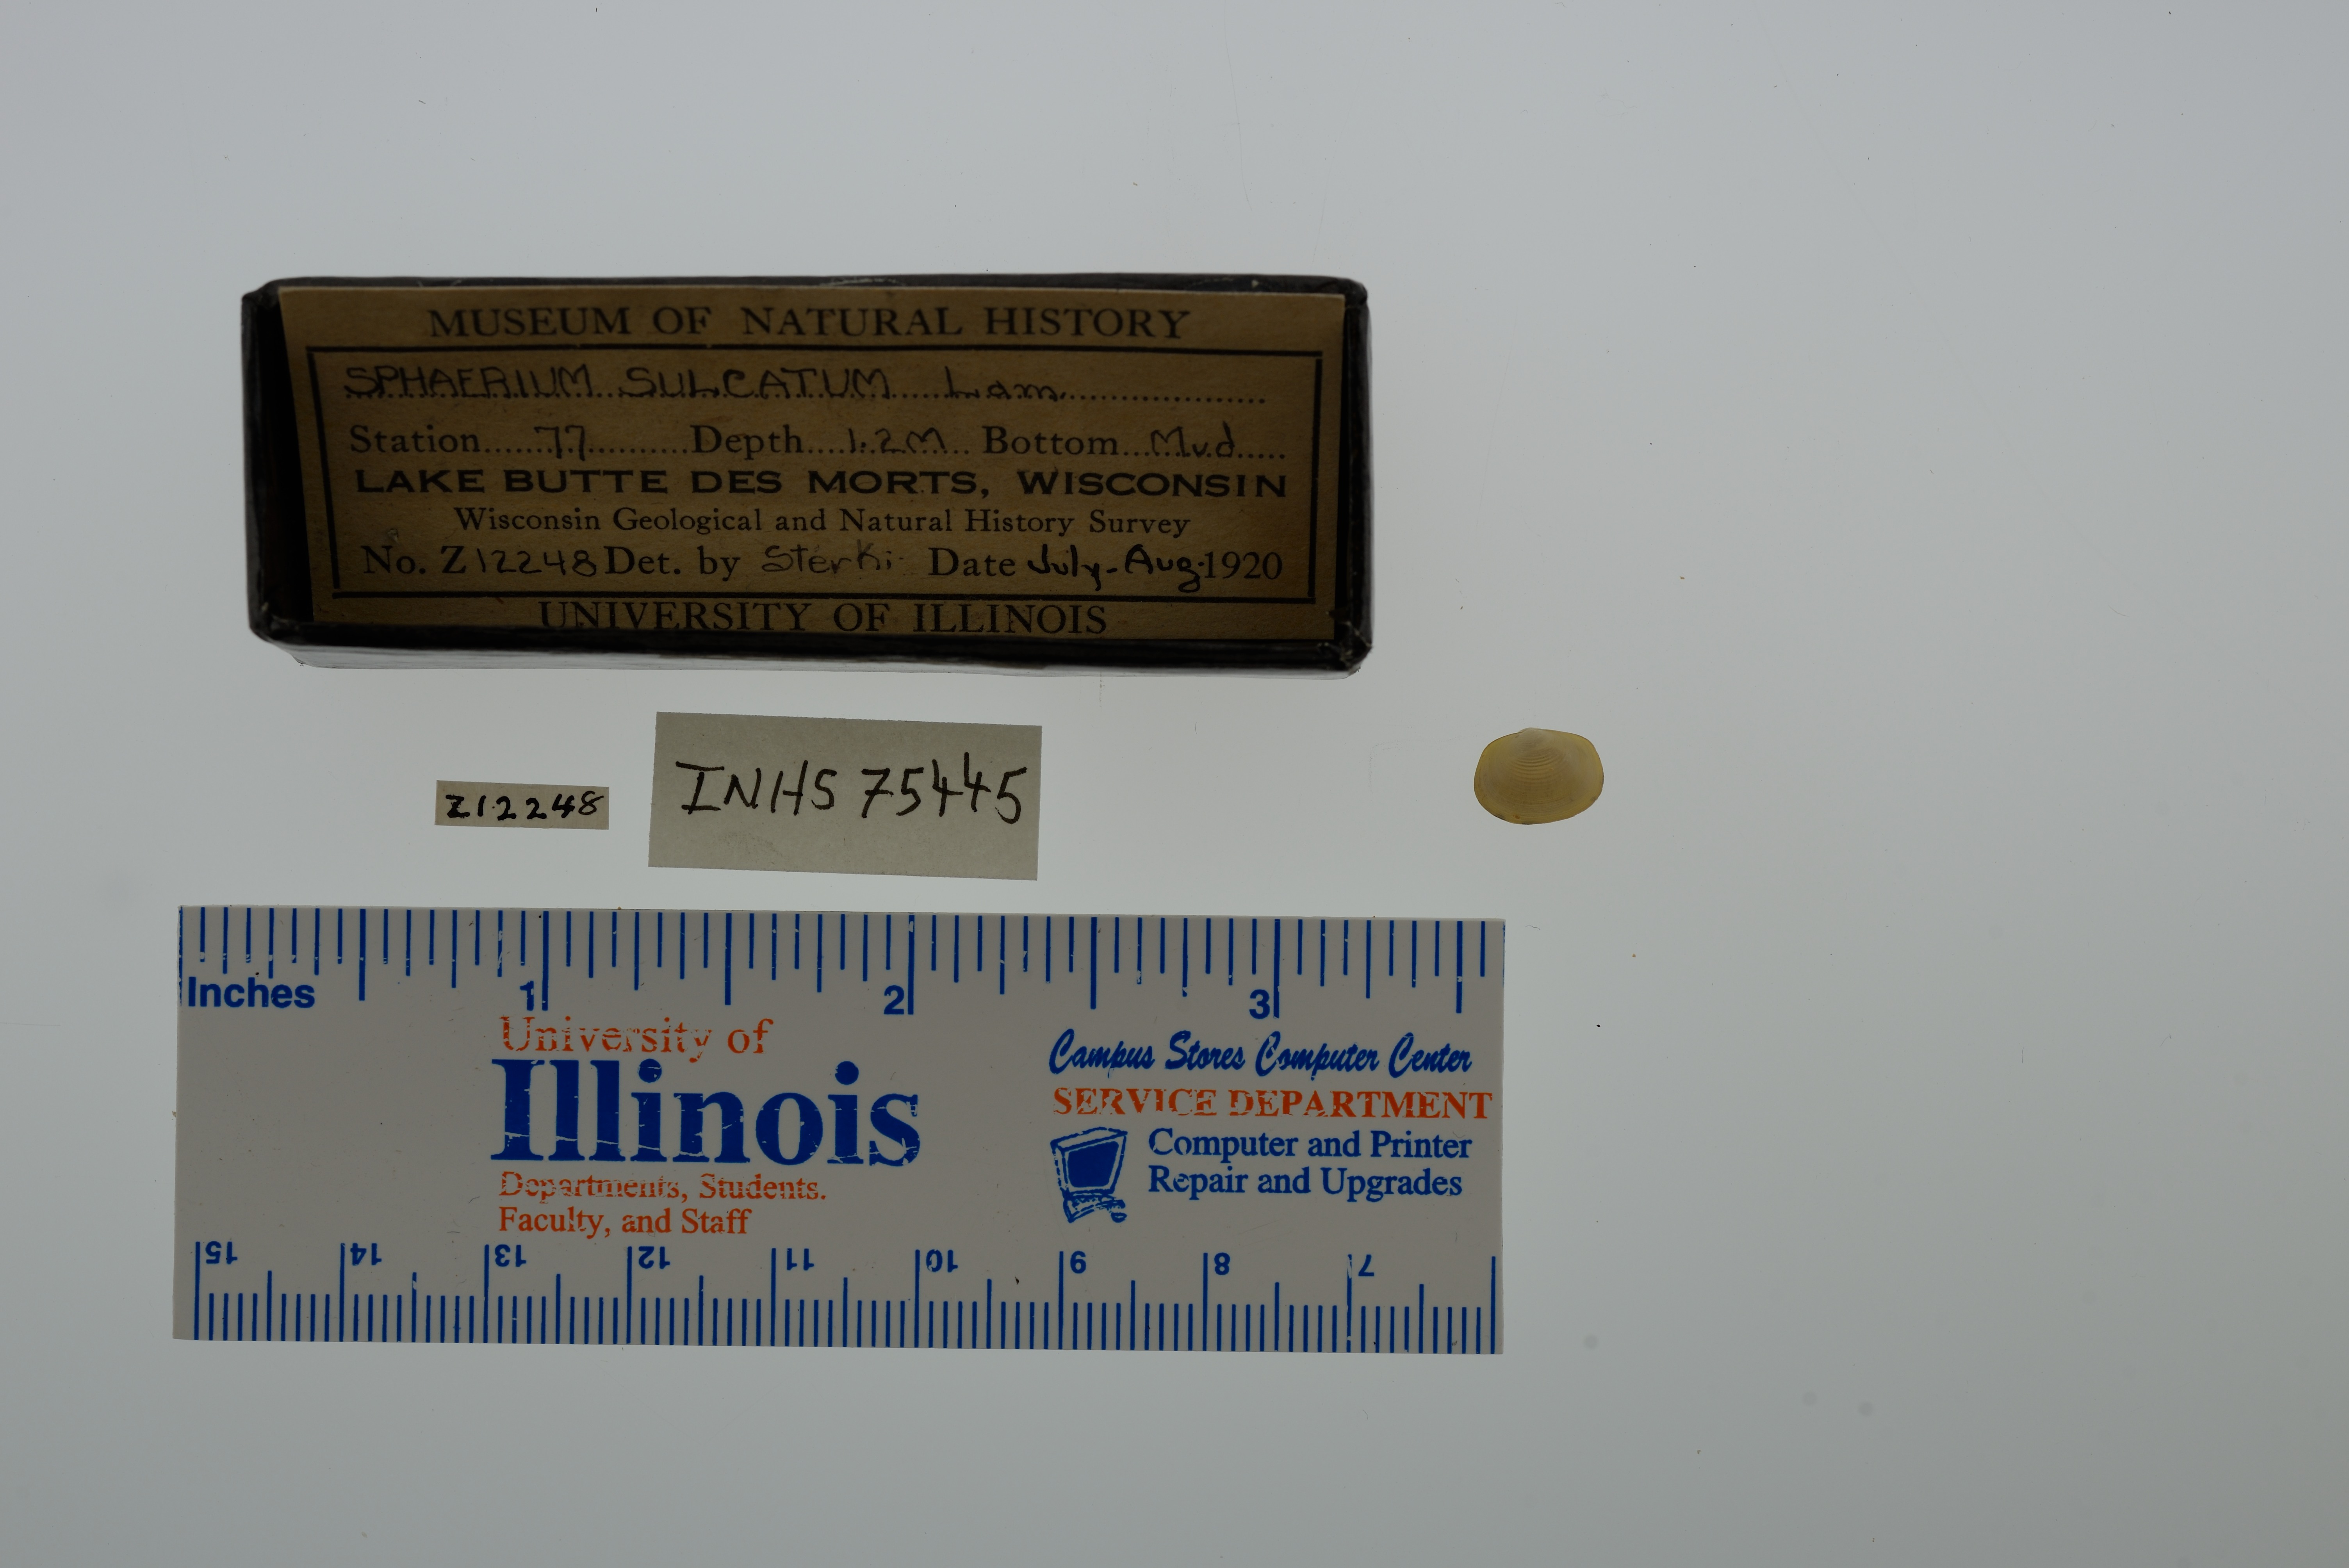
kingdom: Animalia
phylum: Mollusca
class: Bivalvia
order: Sphaeriida
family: Sphaeriidae
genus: Sphaerium
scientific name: Sphaerium simile
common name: Grooved fingernailclam
